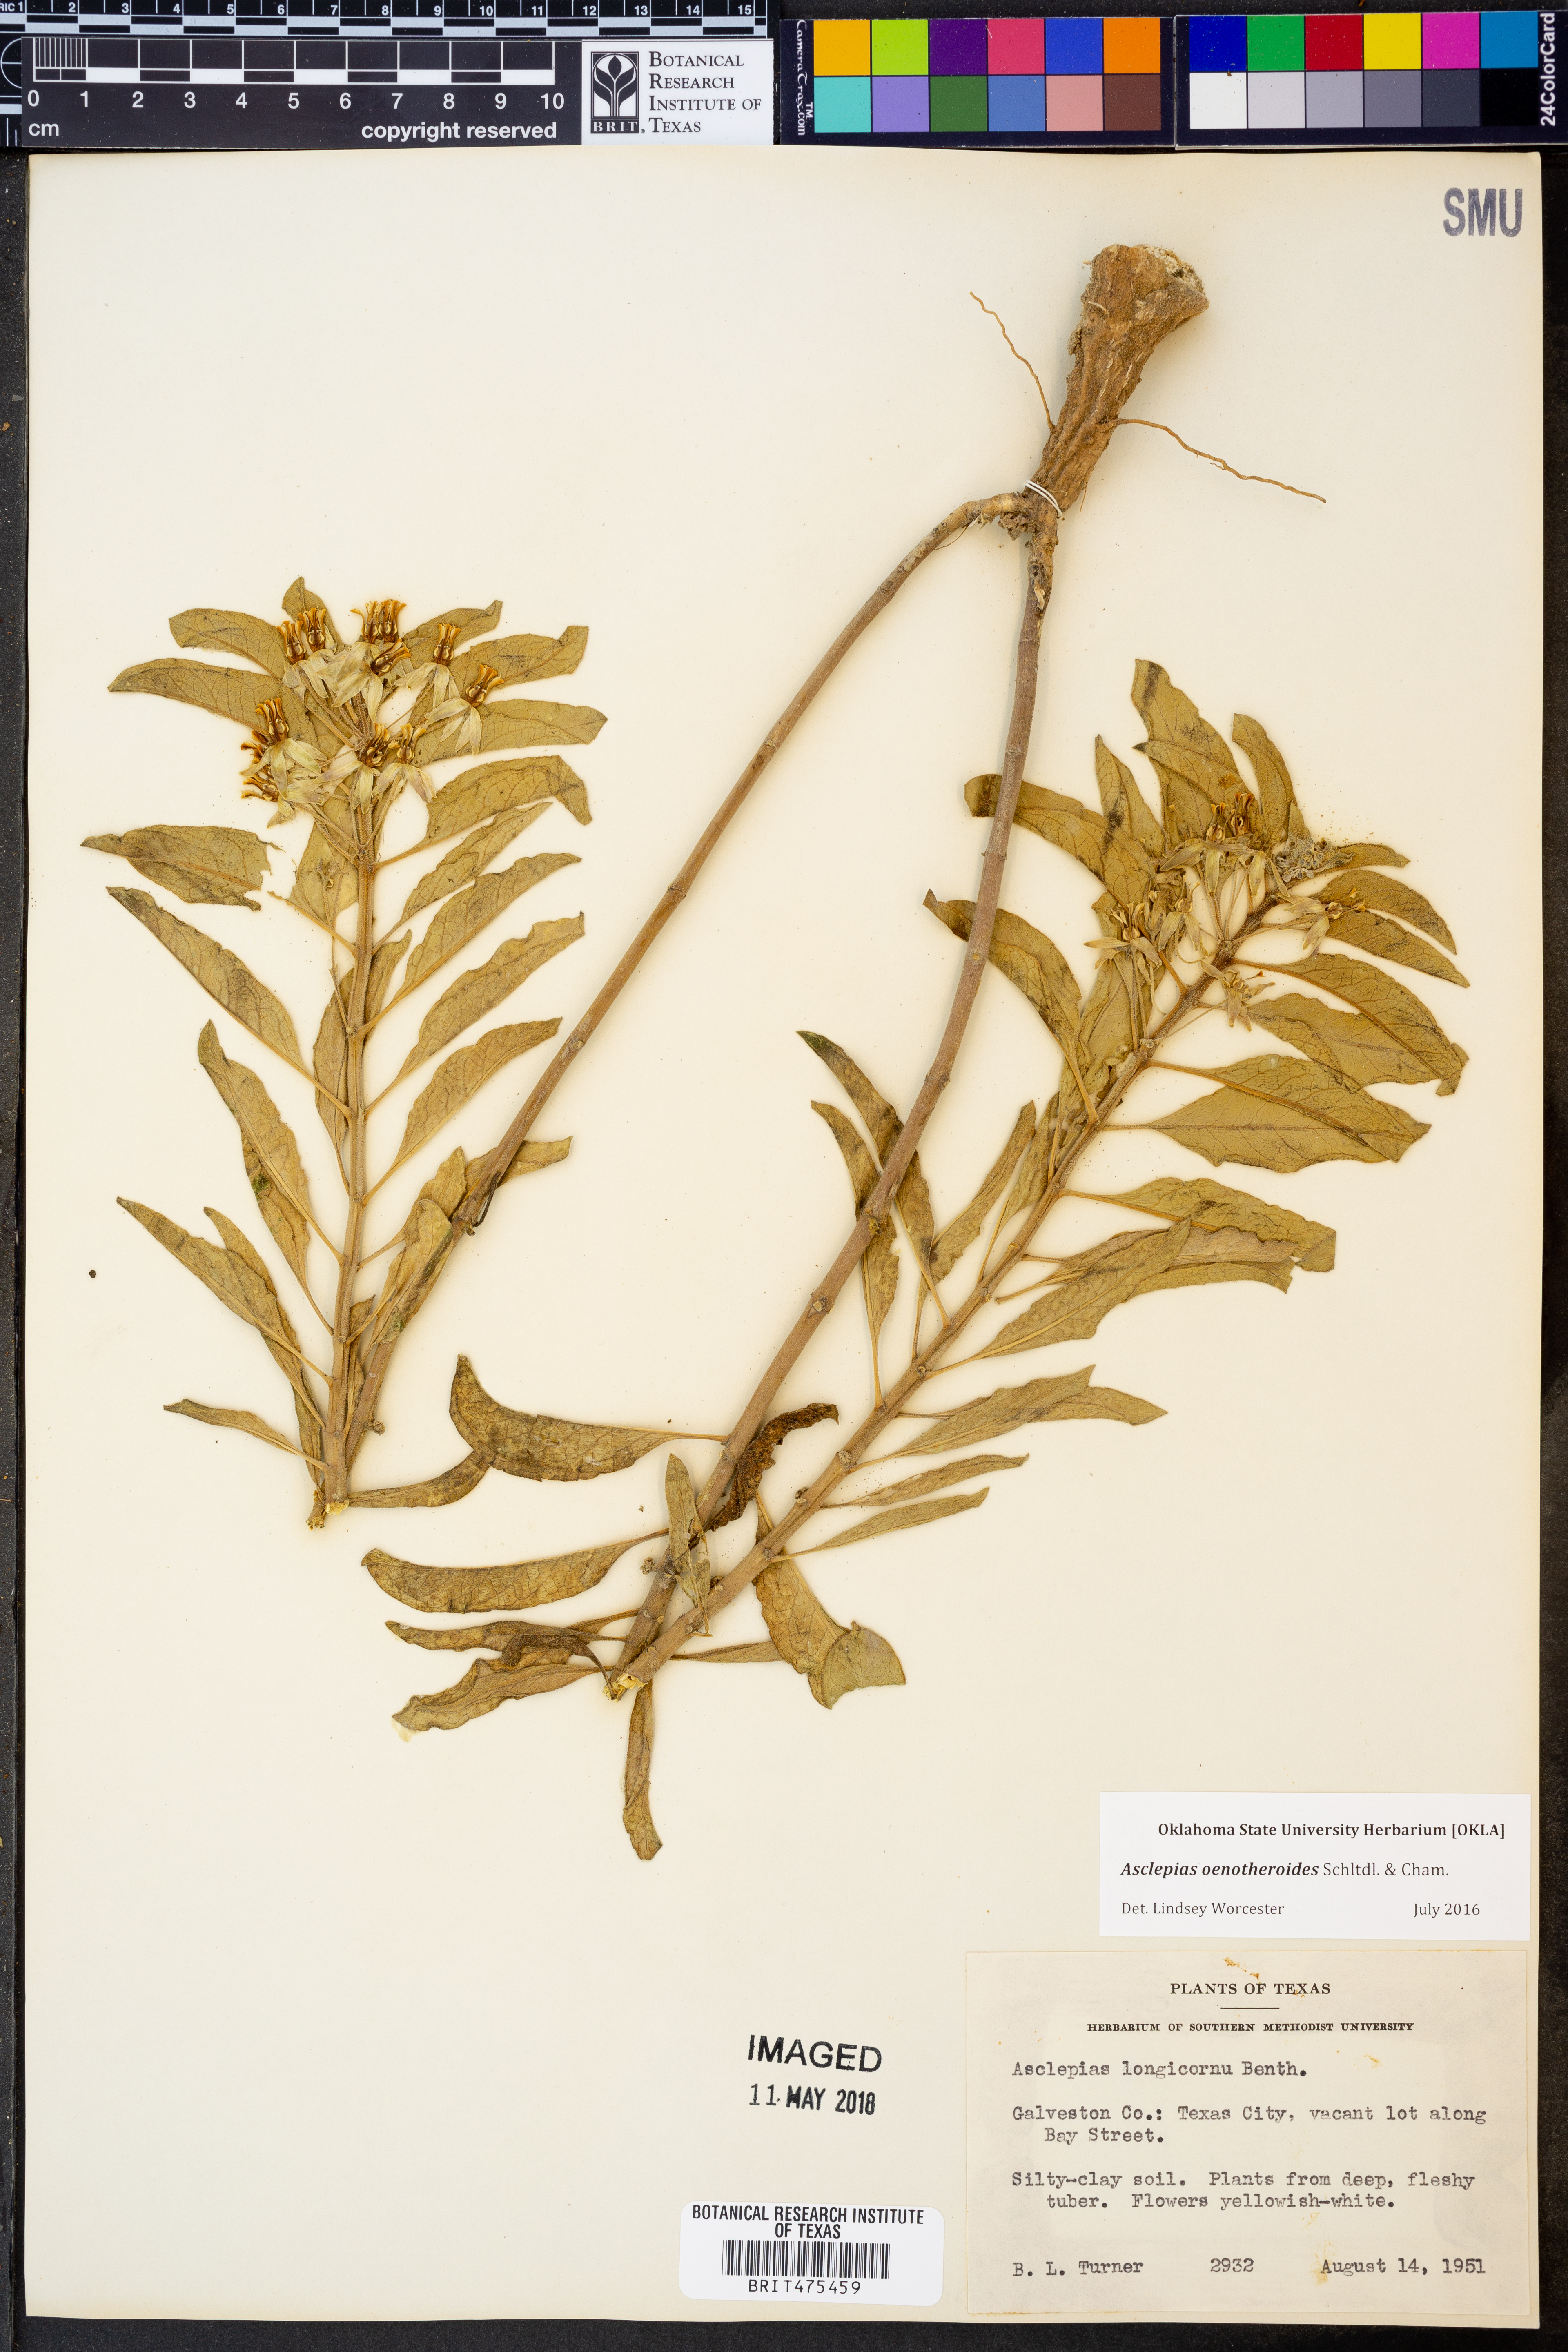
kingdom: Plantae
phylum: Tracheophyta
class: Magnoliopsida
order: Gentianales
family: Apocynaceae
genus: Asclepias
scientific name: Asclepias oenotheroides
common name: Zizotes milkweed
